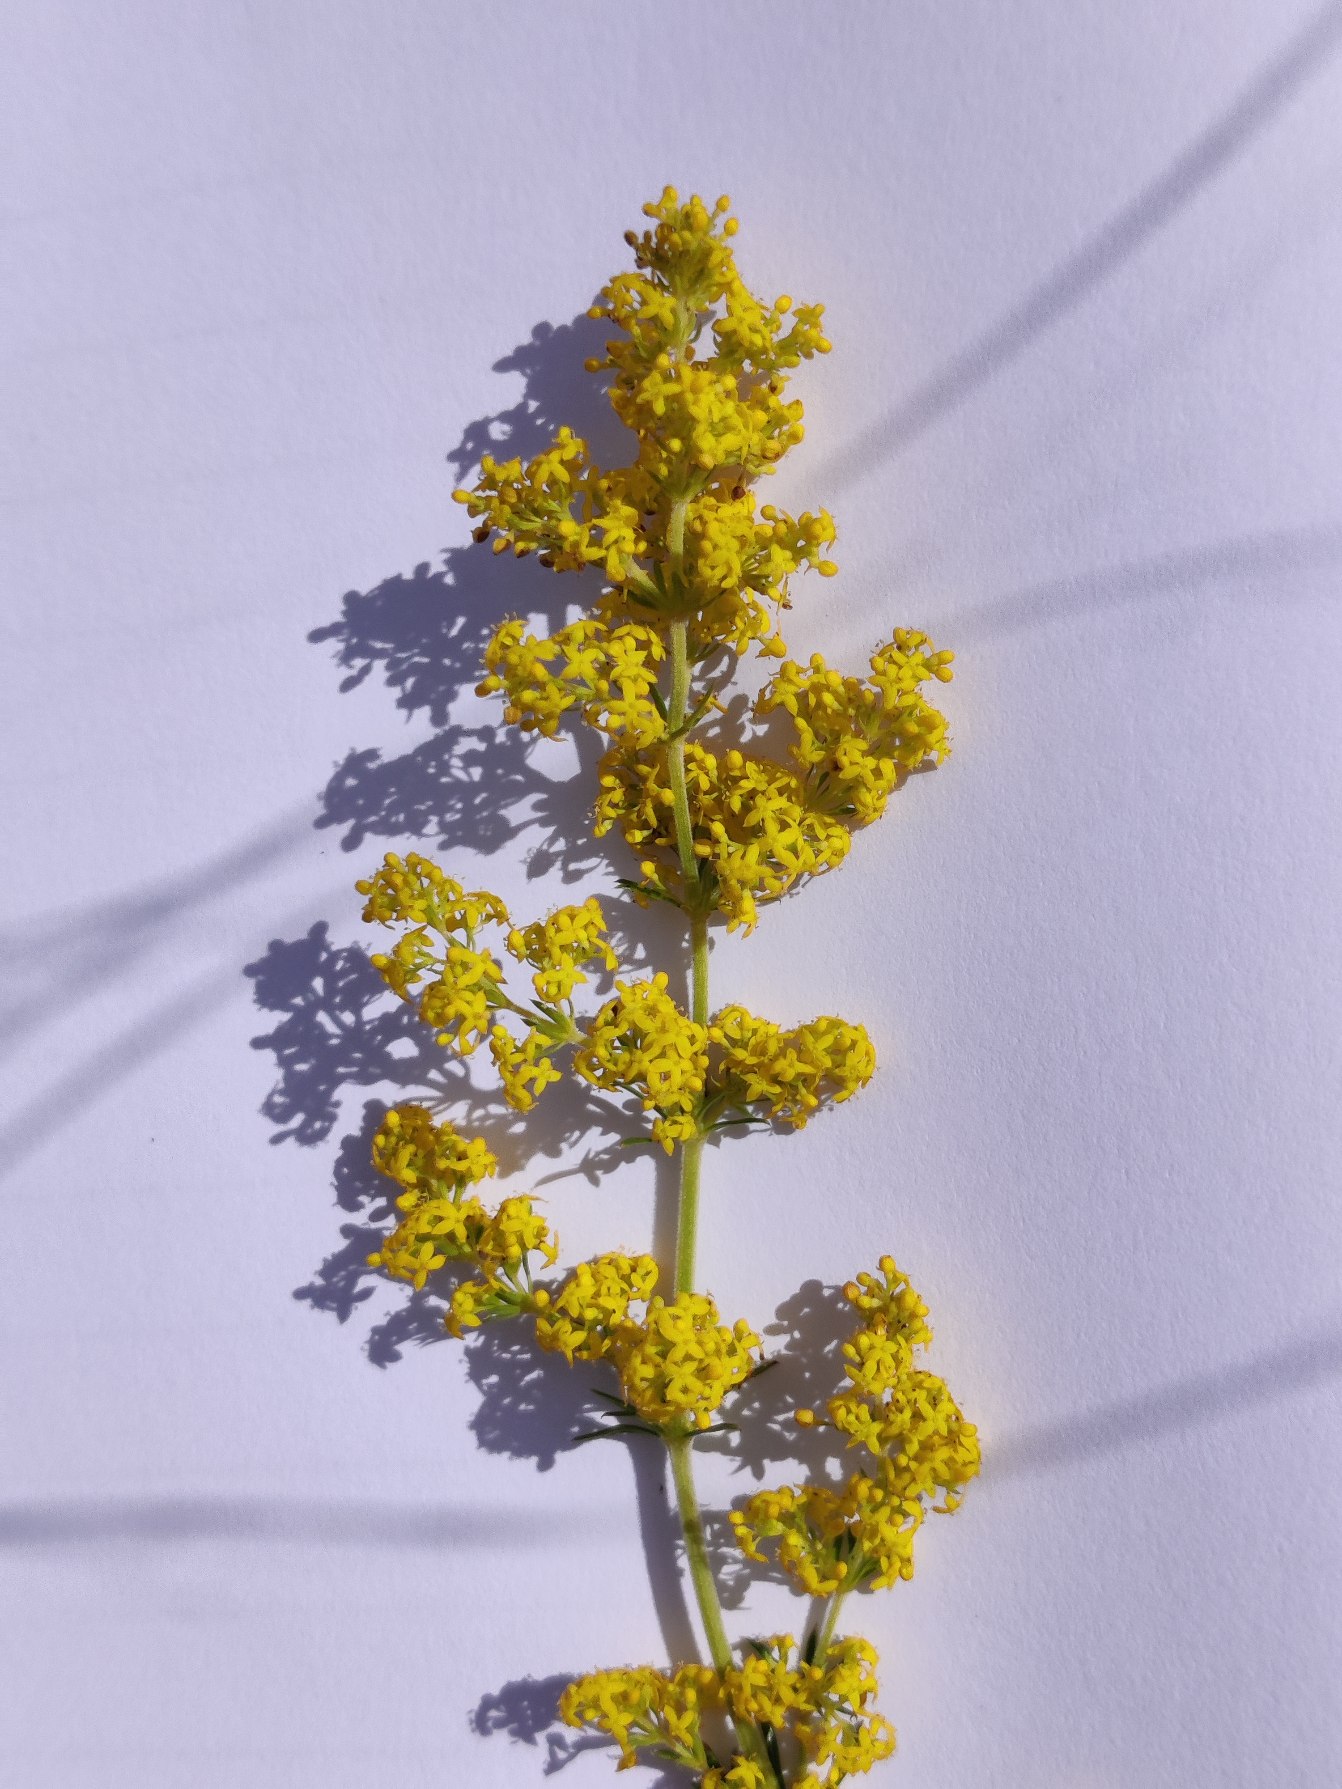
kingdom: Plantae
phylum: Tracheophyta
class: Magnoliopsida
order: Gentianales
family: Rubiaceae
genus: Galium
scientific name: Galium verum
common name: Gul snerre
